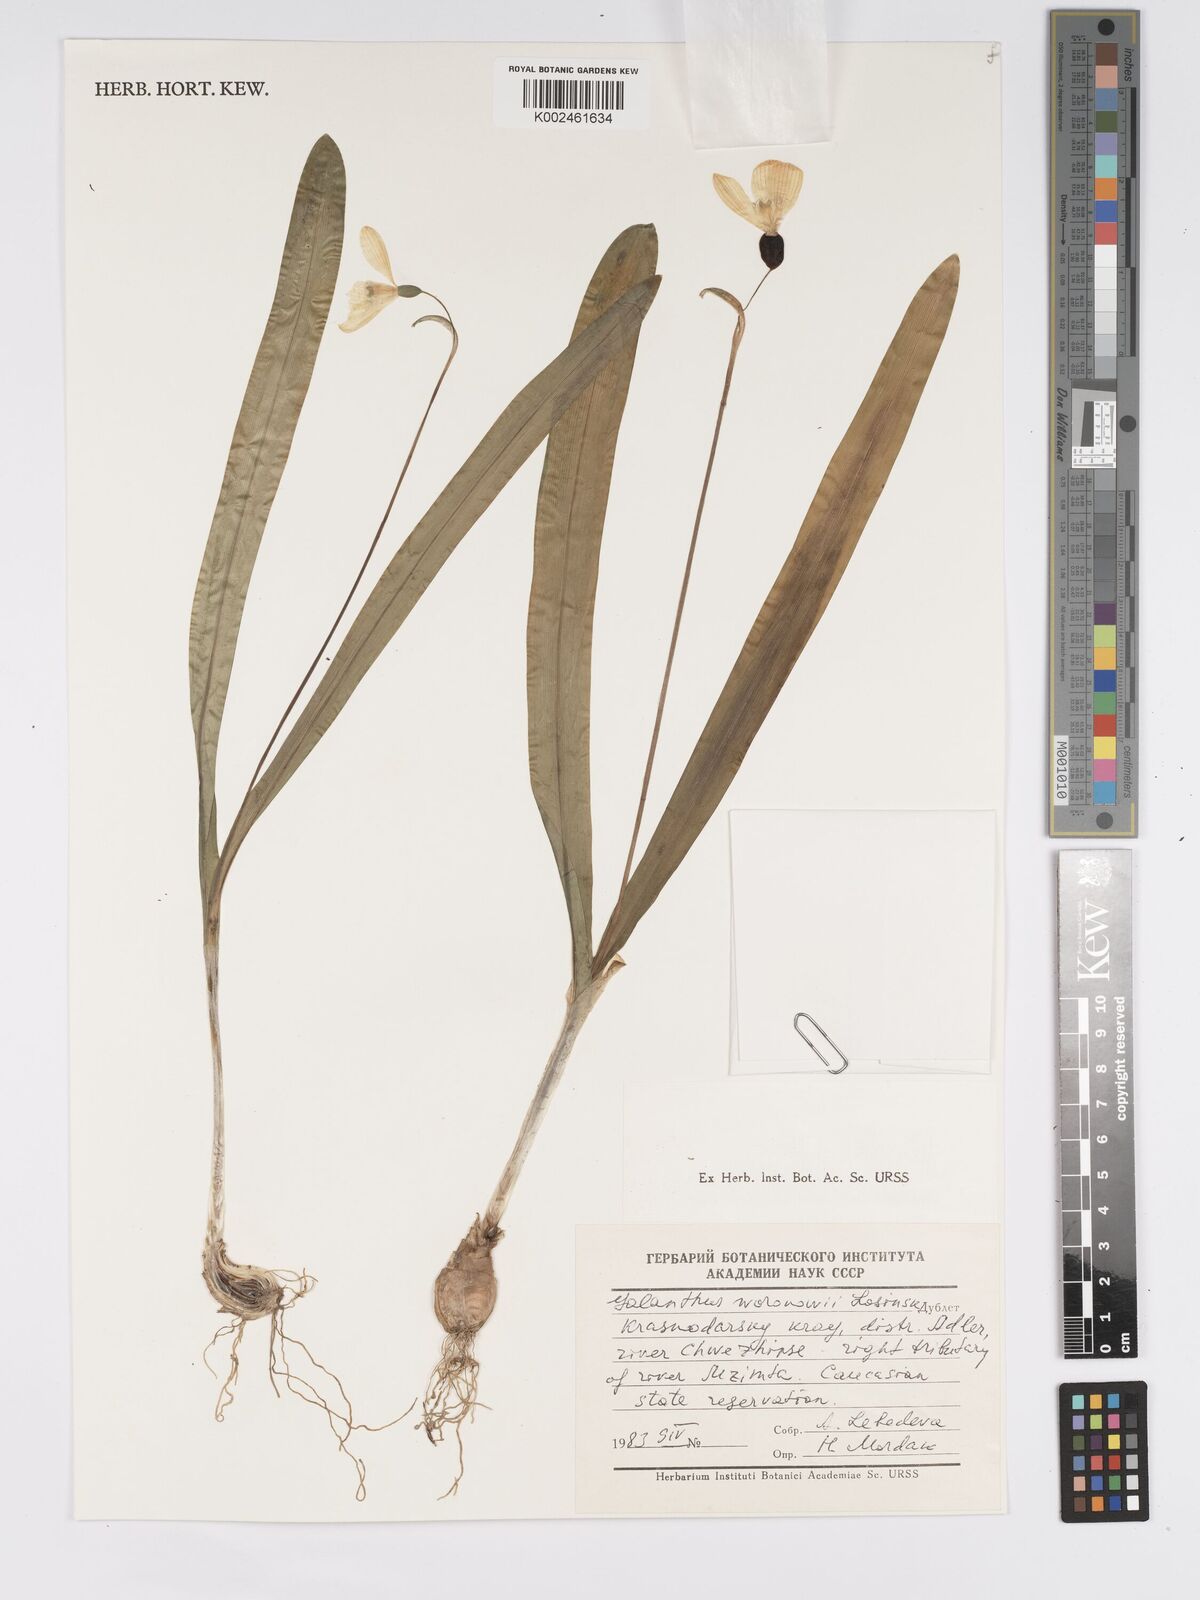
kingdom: Plantae
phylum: Tracheophyta
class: Liliopsida
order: Asparagales
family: Amaryllidaceae
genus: Galanthus
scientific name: Galanthus woronowii
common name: Green snowdrop
